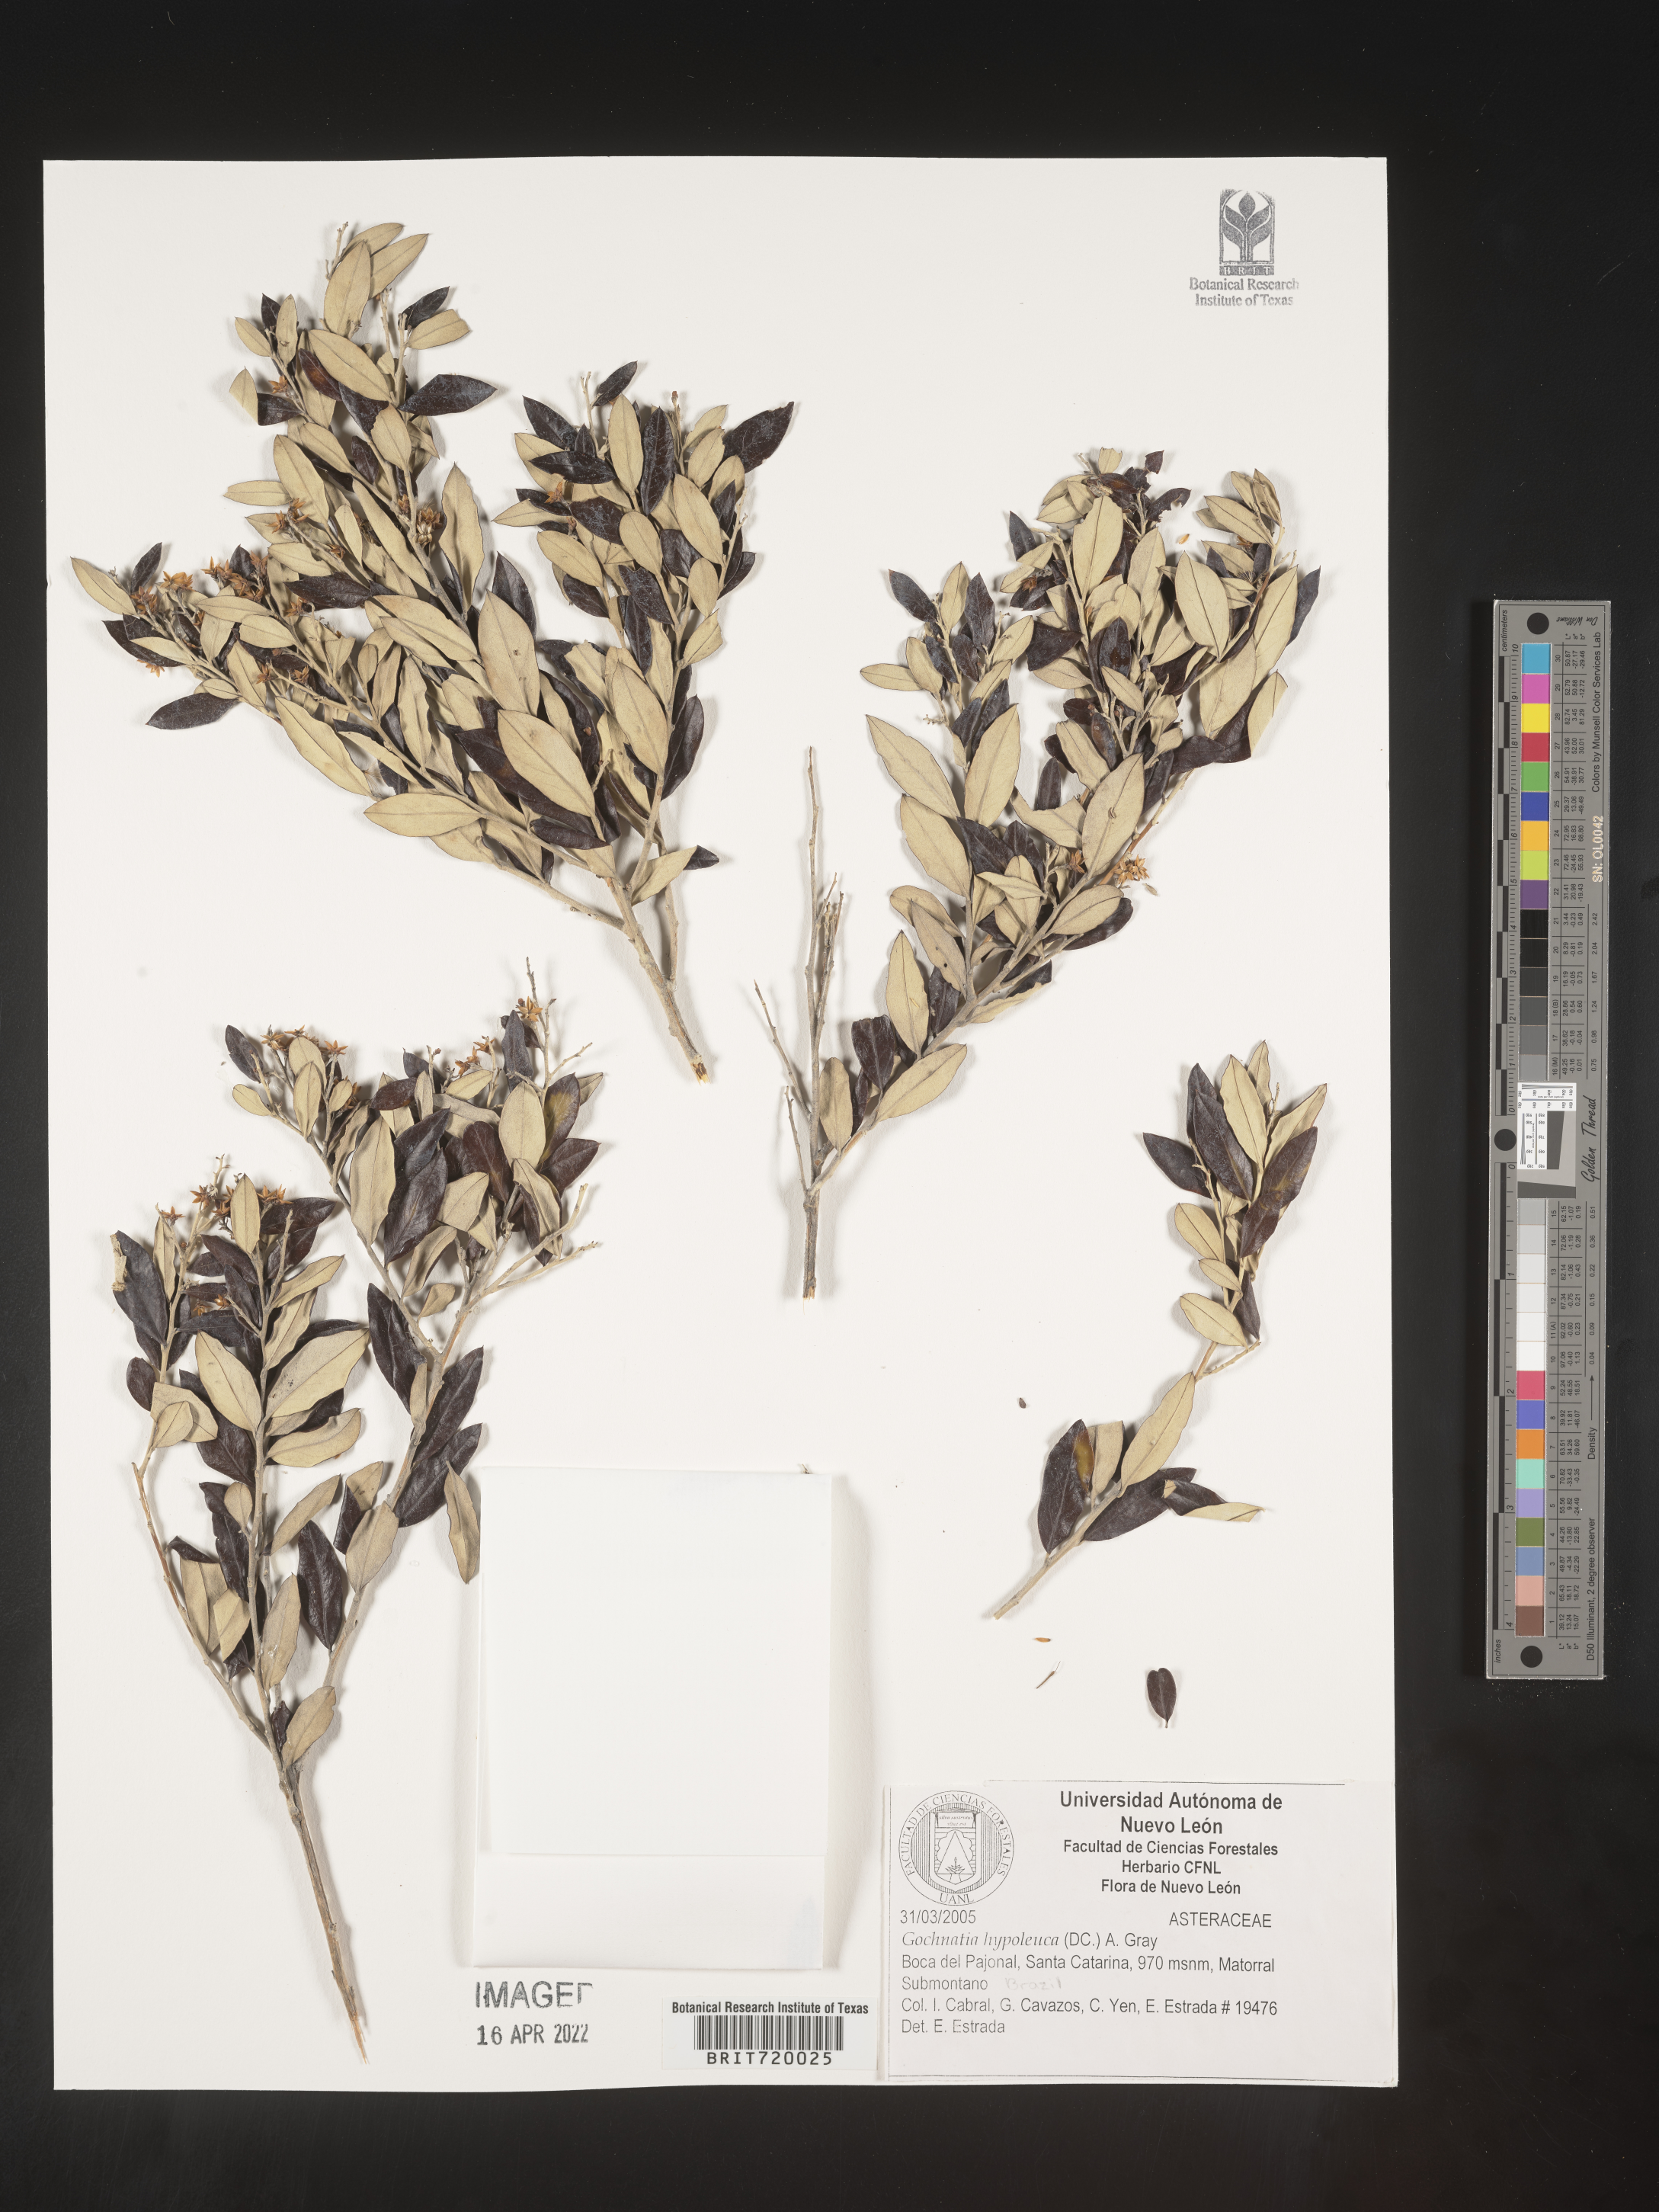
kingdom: Plantae
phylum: Tracheophyta
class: Magnoliopsida
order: Asterales
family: Asteraceae
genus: Gochnatia
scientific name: Gochnatia
